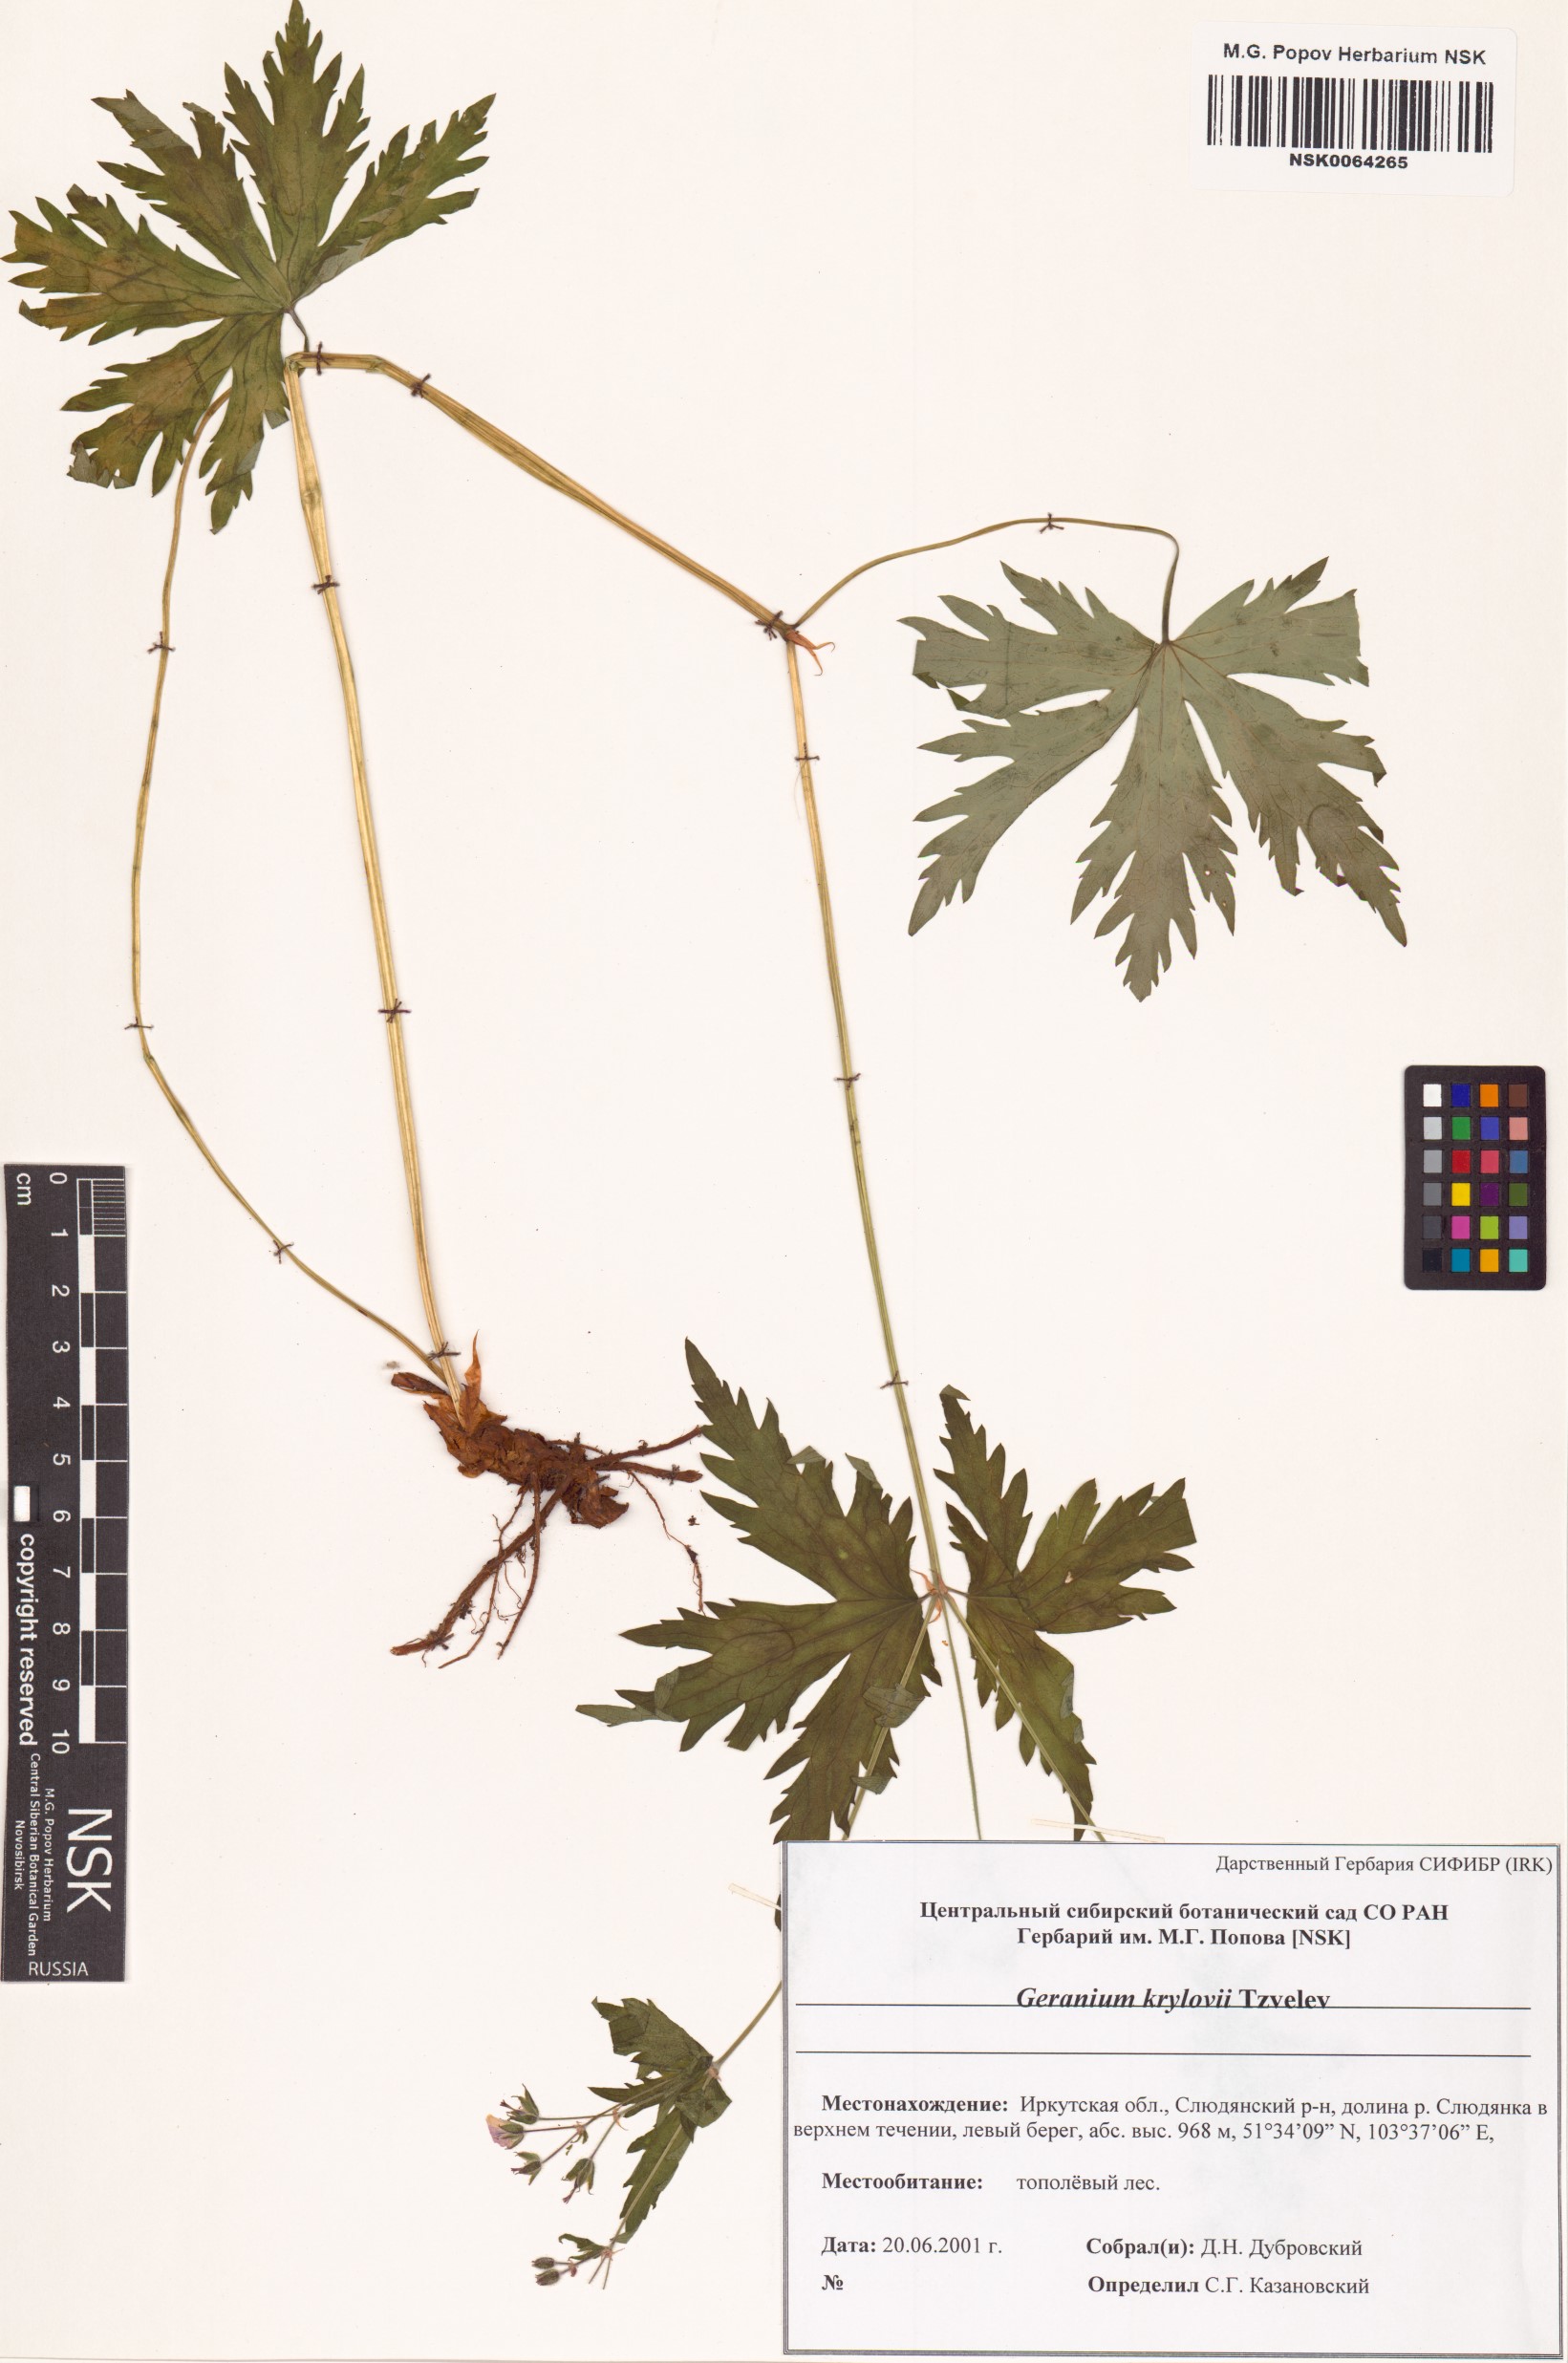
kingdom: Plantae
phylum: Tracheophyta
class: Magnoliopsida
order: Geraniales
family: Geraniaceae
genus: Geranium
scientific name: Geranium sylvaticum
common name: Wood crane's-bill
